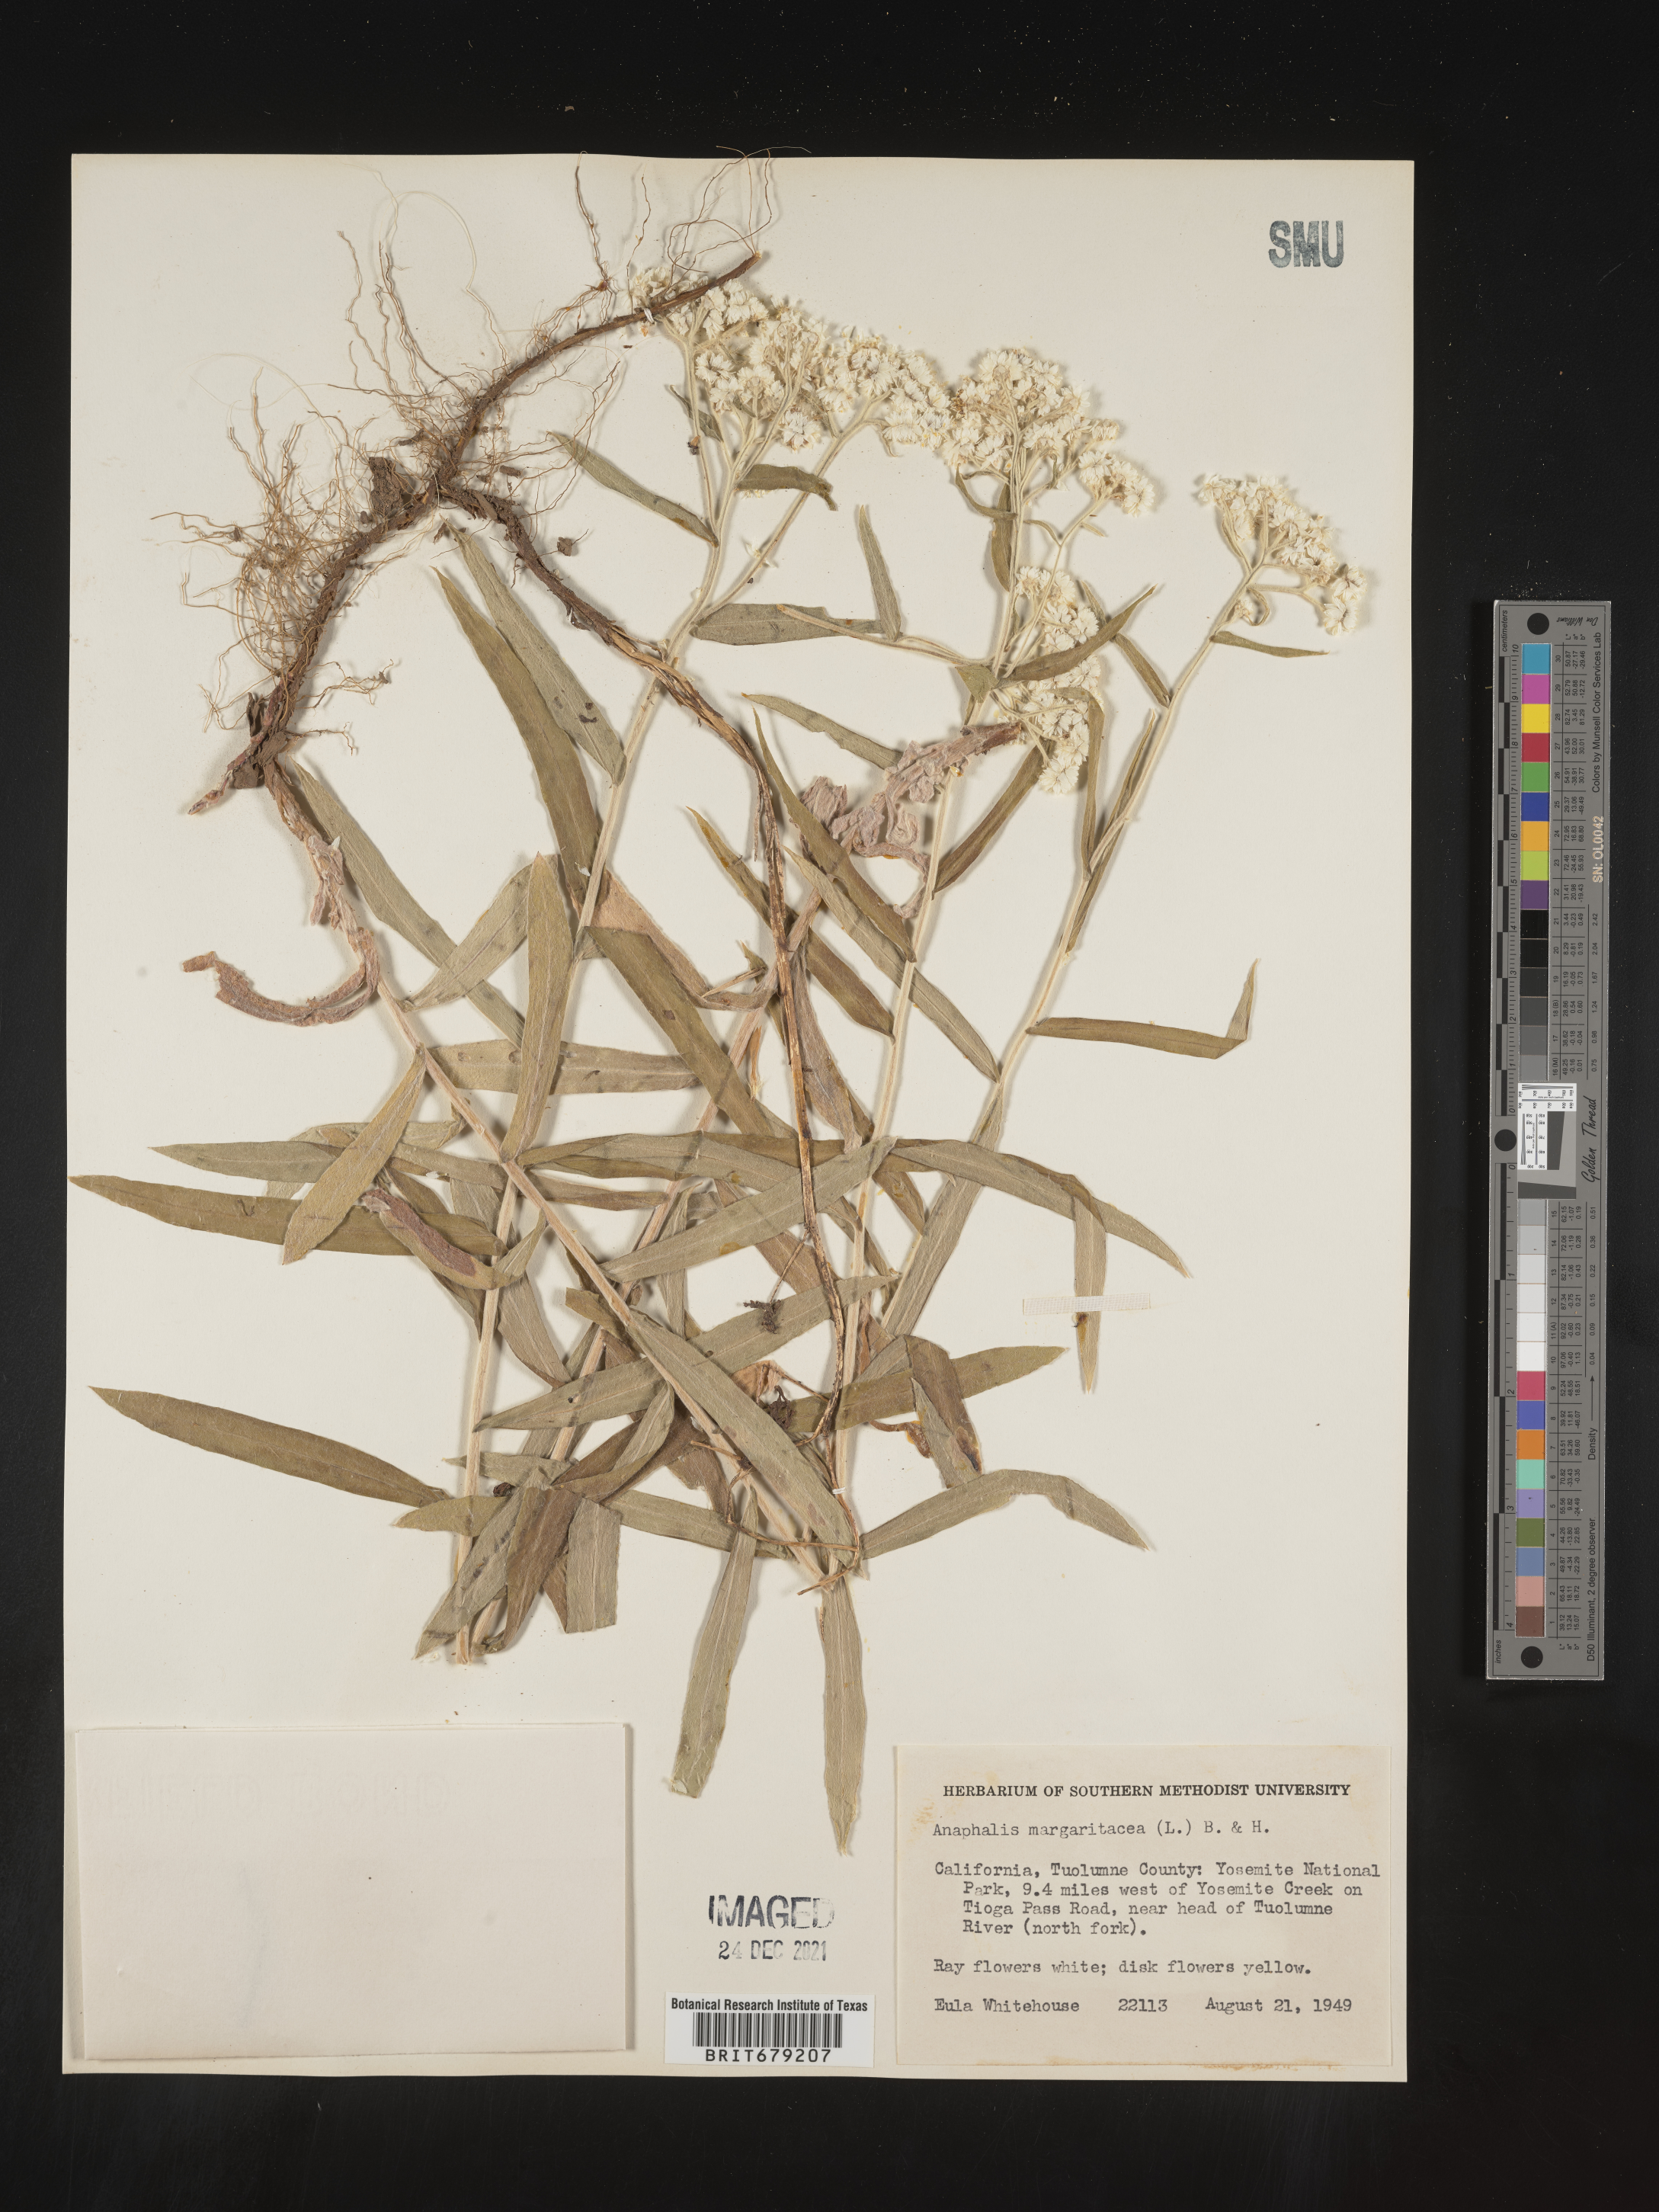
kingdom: Plantae
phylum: Tracheophyta
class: Magnoliopsida
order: Asterales
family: Asteraceae
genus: Anaphalis
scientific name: Anaphalis margaritacea
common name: Pearly everlasting
